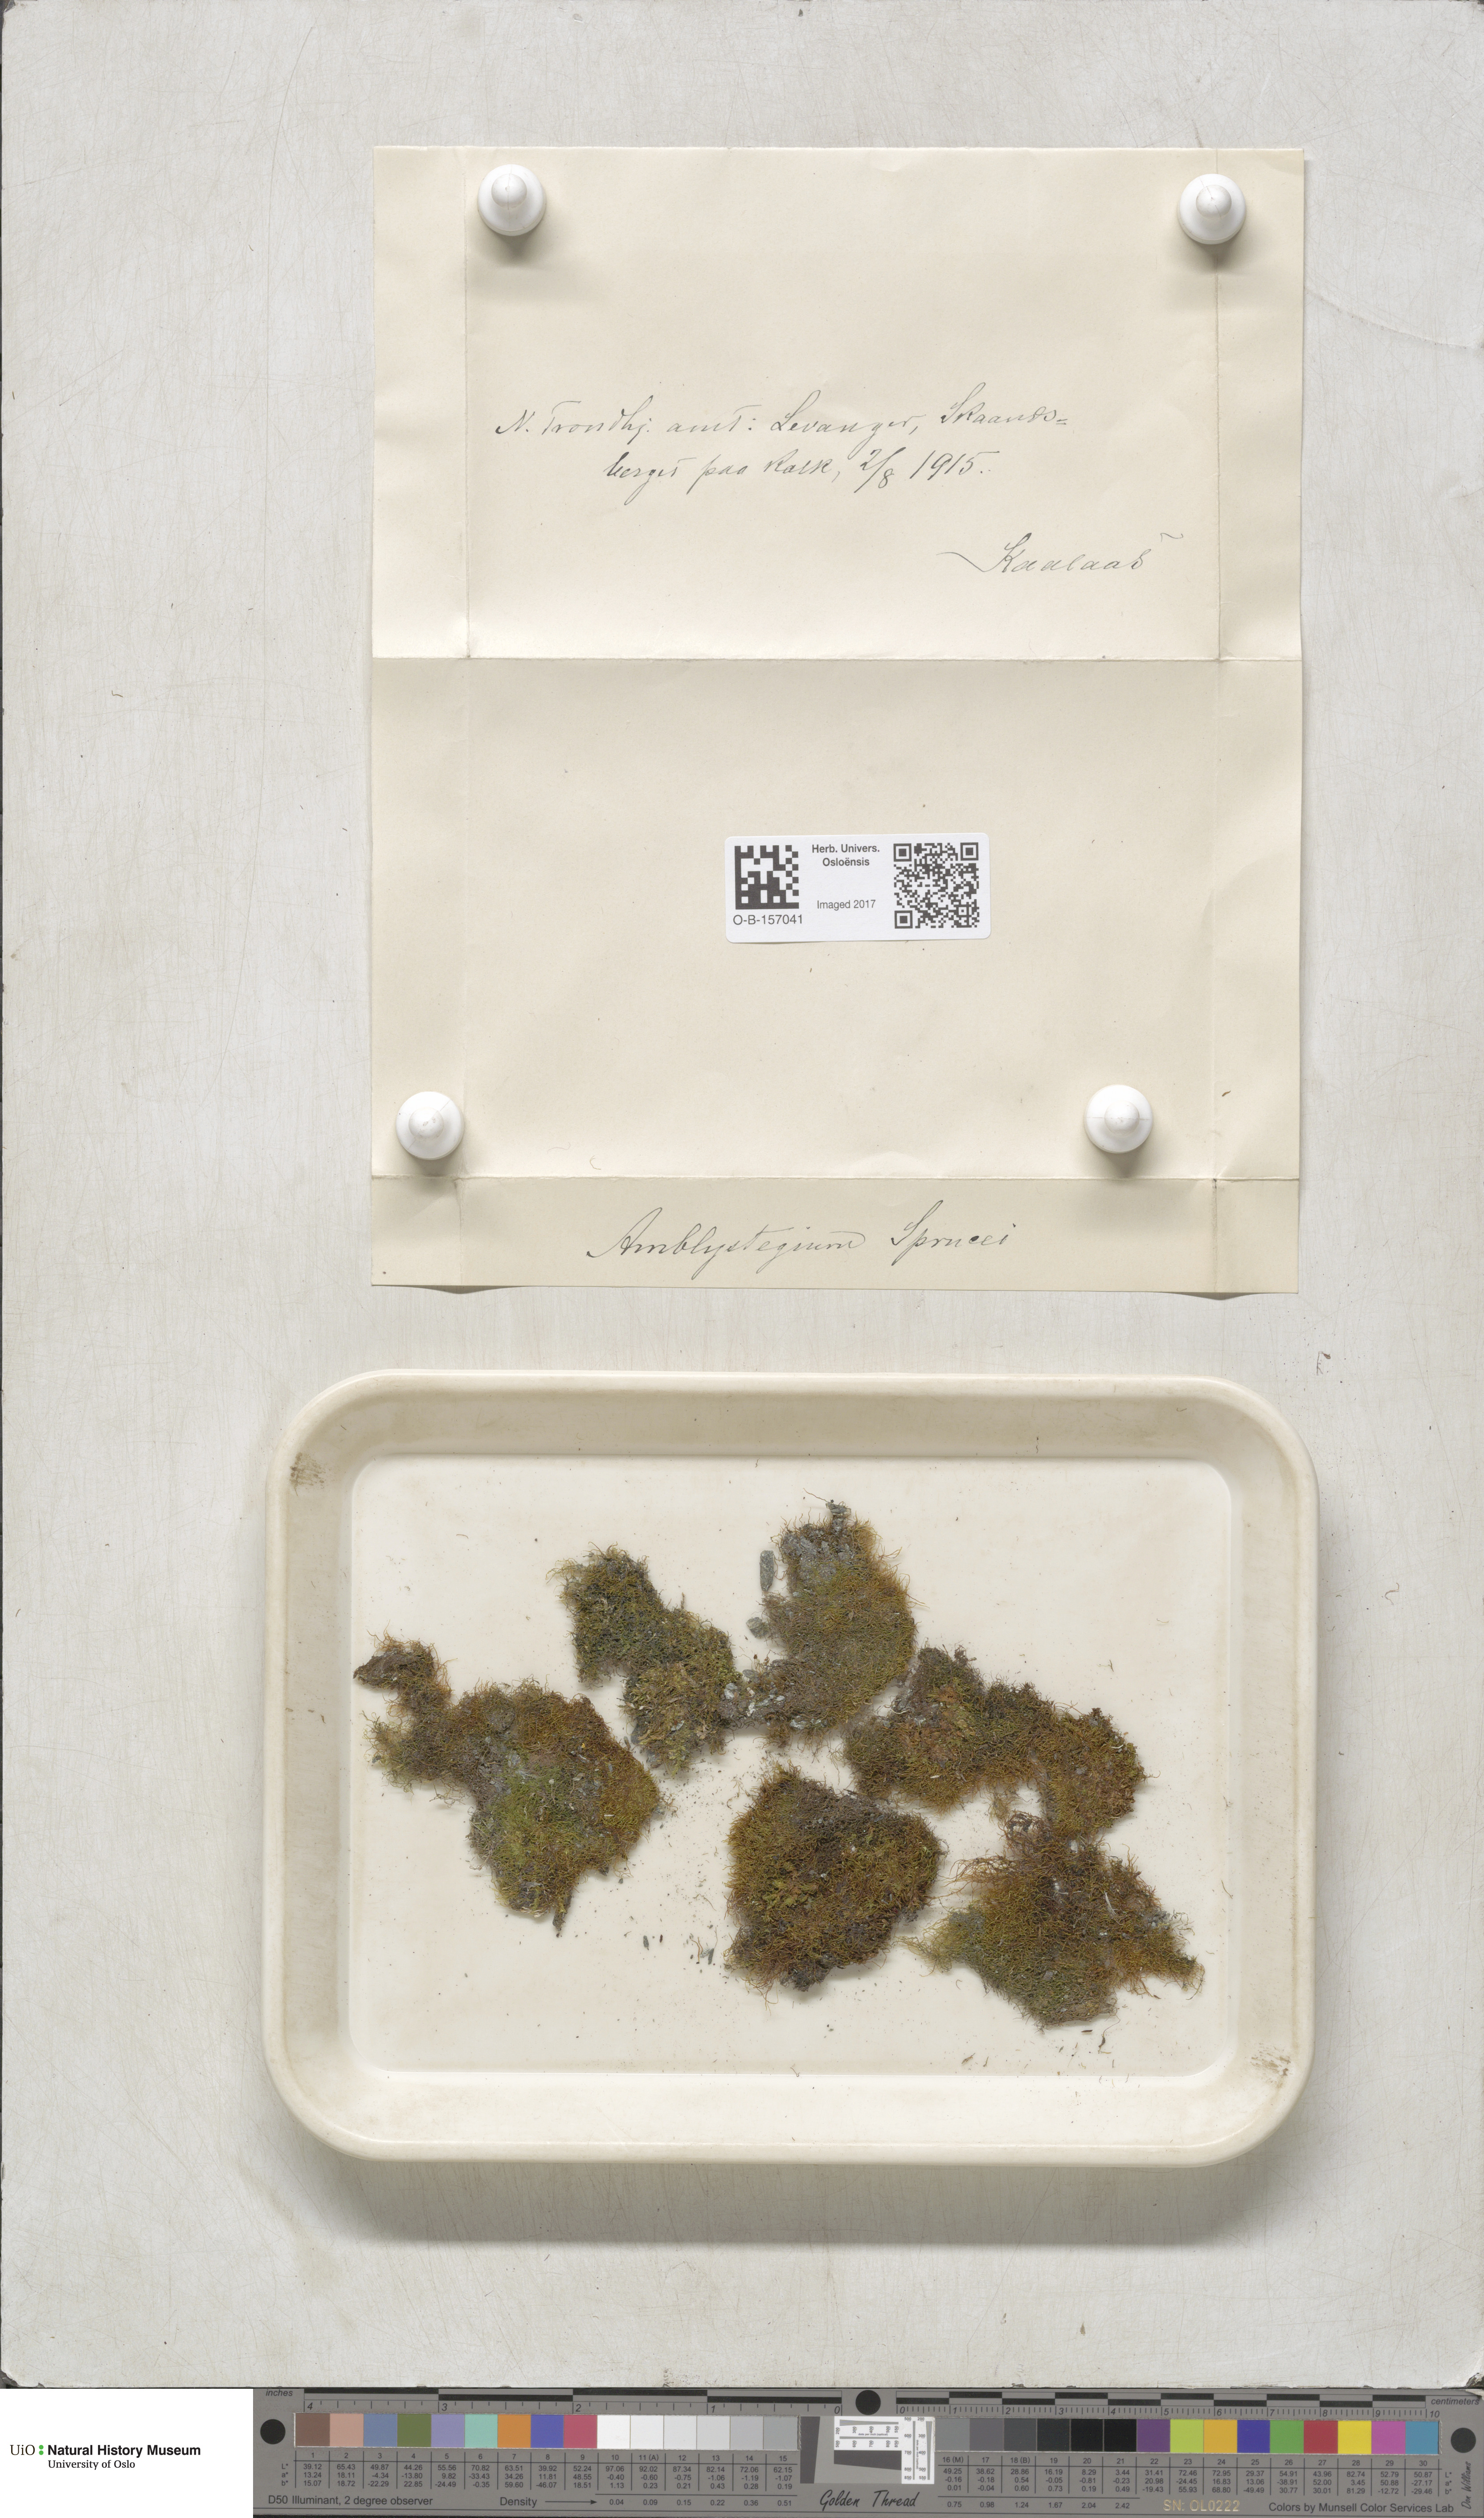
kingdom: Plantae
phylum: Bryophyta
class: Bryopsida
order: Hypnales
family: Plagiotheciaceae
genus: Platydictya
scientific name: Platydictya jungermannioides
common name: False willow moss
